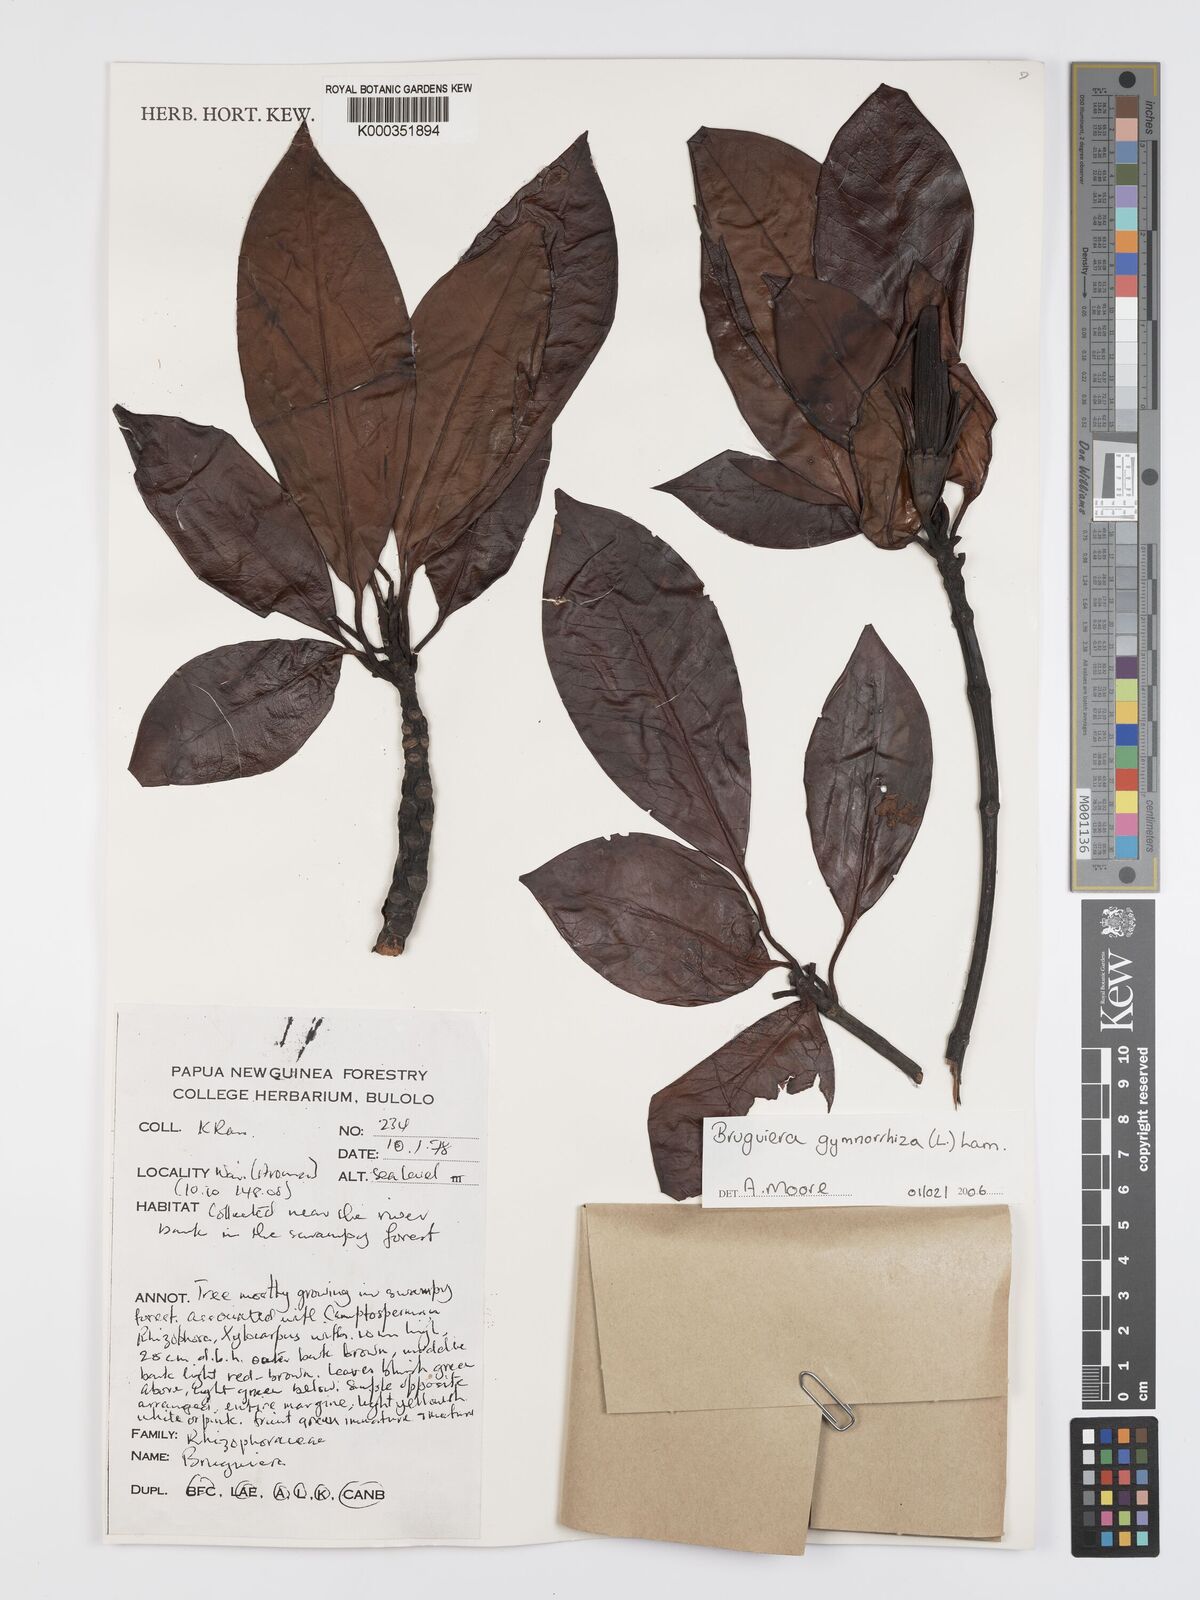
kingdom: Plantae
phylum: Tracheophyta
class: Magnoliopsida
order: Malpighiales
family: Rhizophoraceae
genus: Bruguiera
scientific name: Bruguiera gymnorhiza
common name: Oriental mangrove
